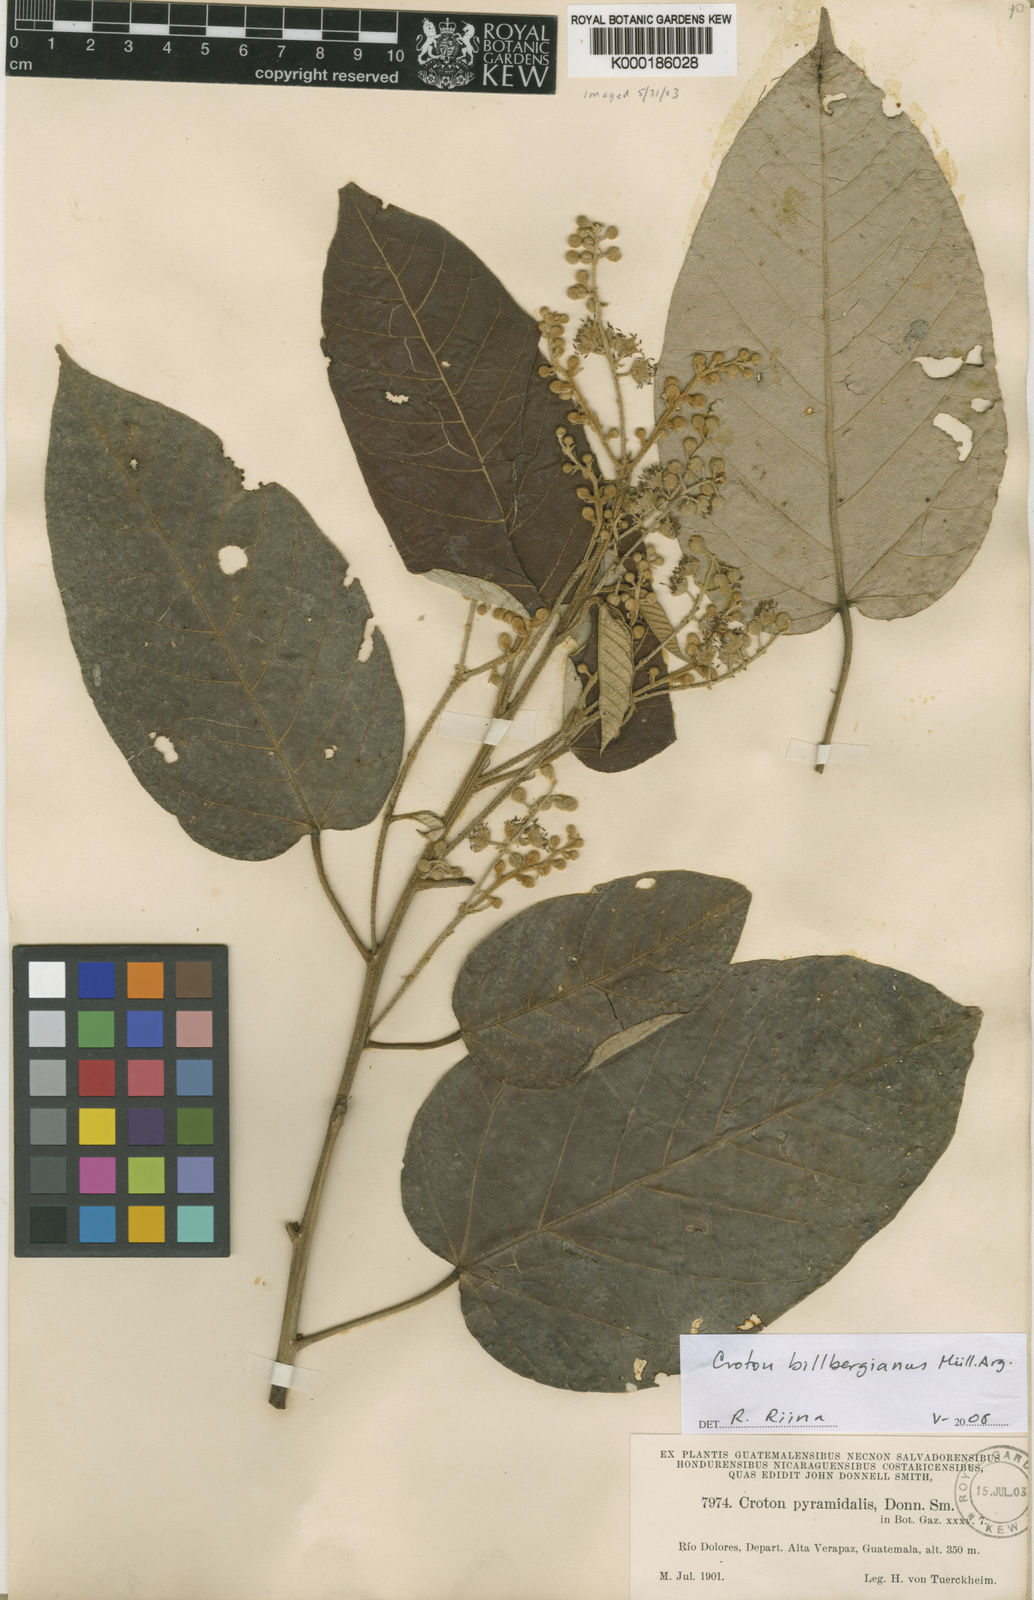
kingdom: Plantae
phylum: Tracheophyta
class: Magnoliopsida
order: Malpighiales
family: Euphorbiaceae
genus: Croton
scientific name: Croton
